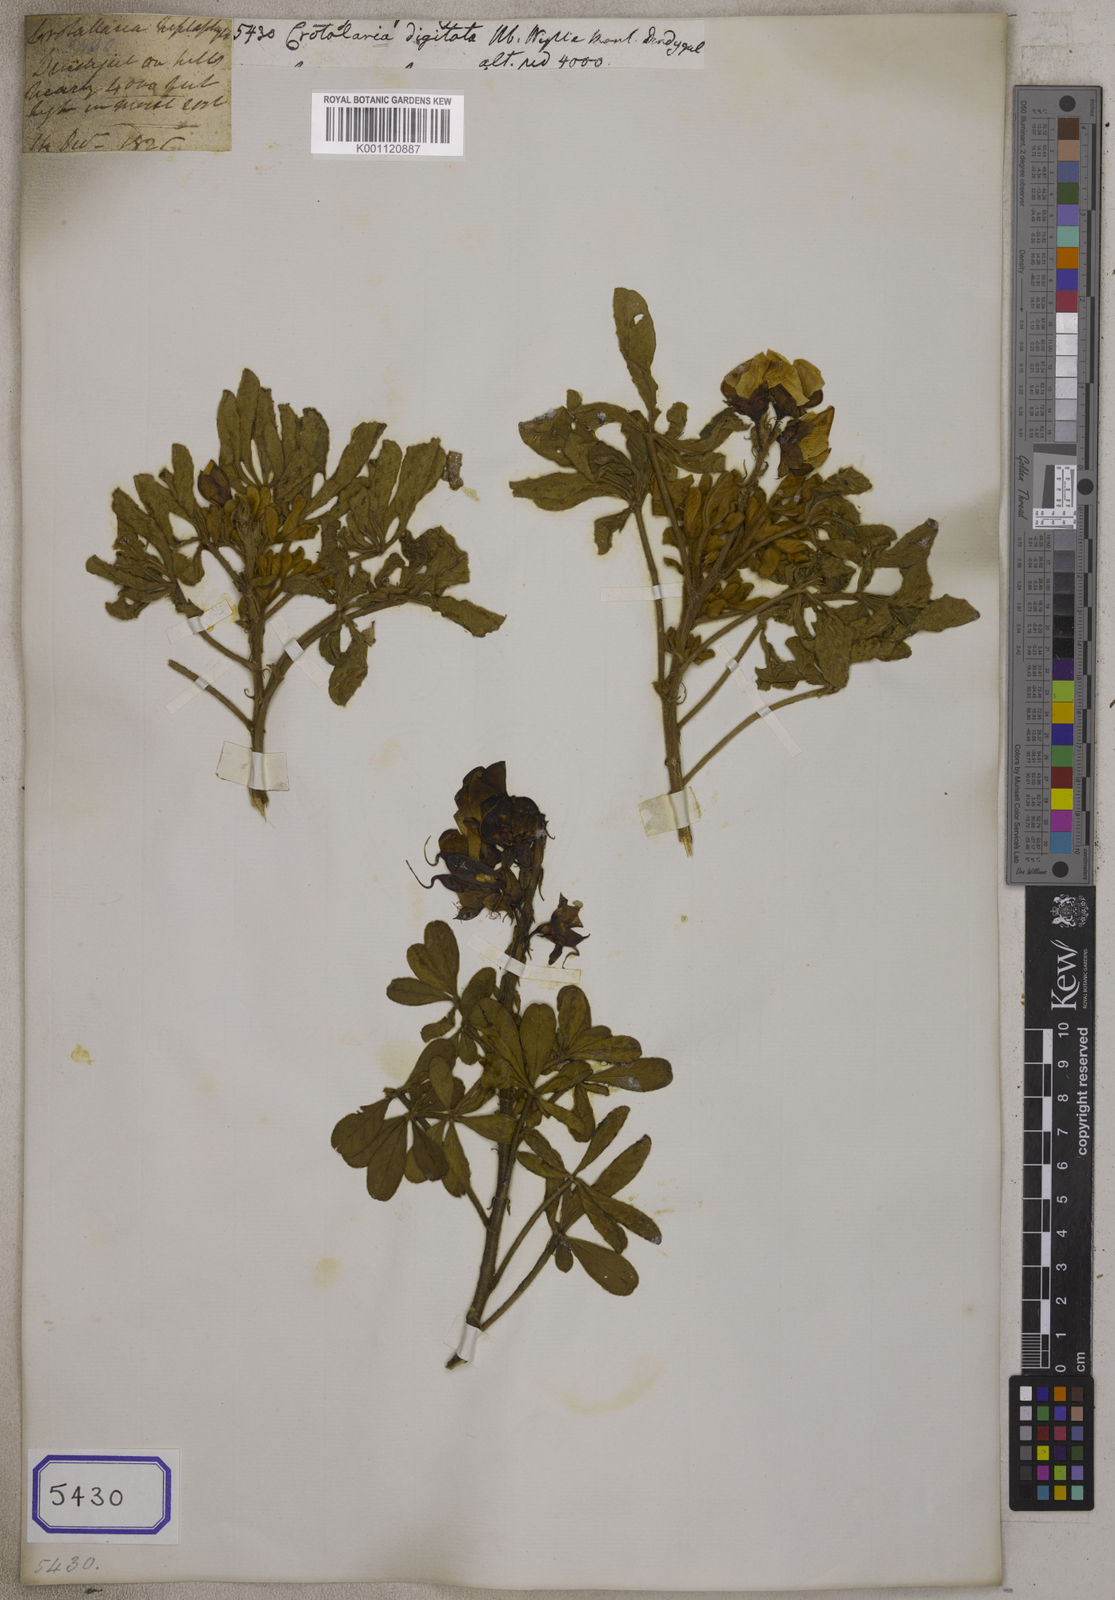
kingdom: Plantae
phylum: Tracheophyta
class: Magnoliopsida
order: Fabales
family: Fabaceae
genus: Crotalaria
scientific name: Crotalaria
